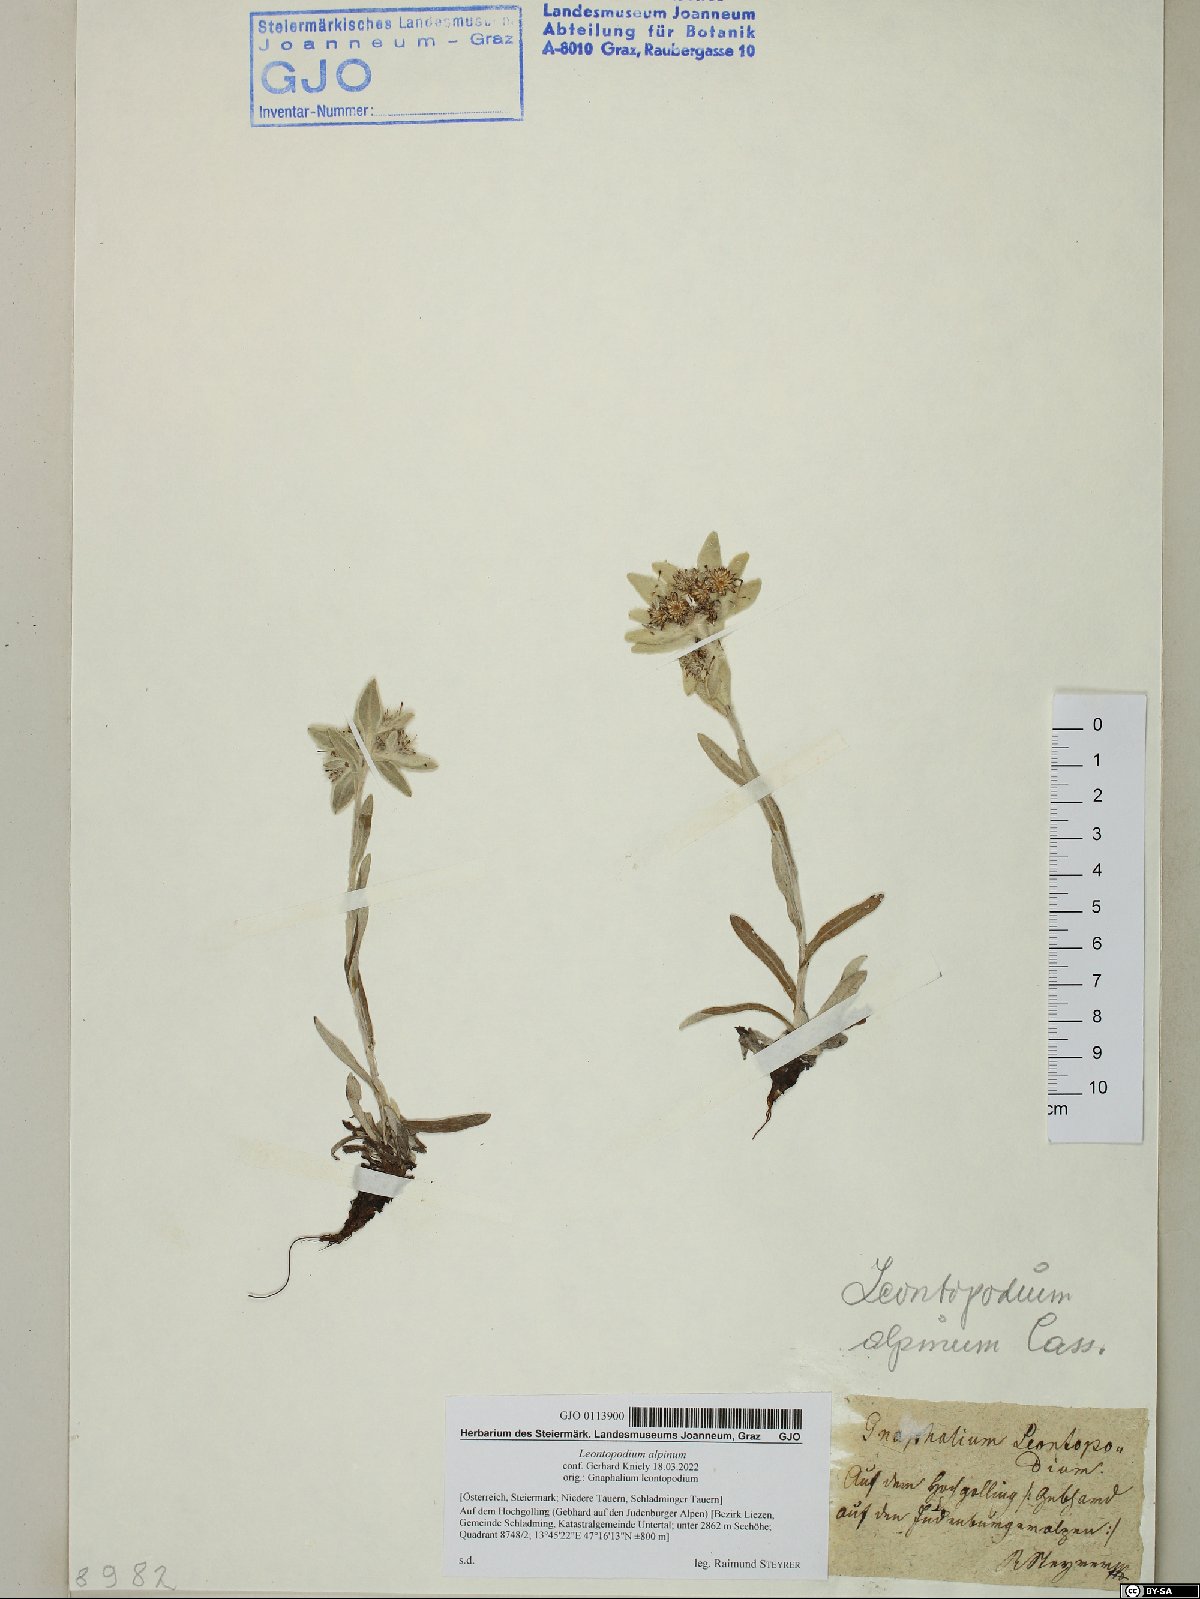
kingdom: Plantae
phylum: Tracheophyta
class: Magnoliopsida
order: Asterales
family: Asteraceae
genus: Leontopodium
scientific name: Leontopodium nivale
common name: Edelweiss
